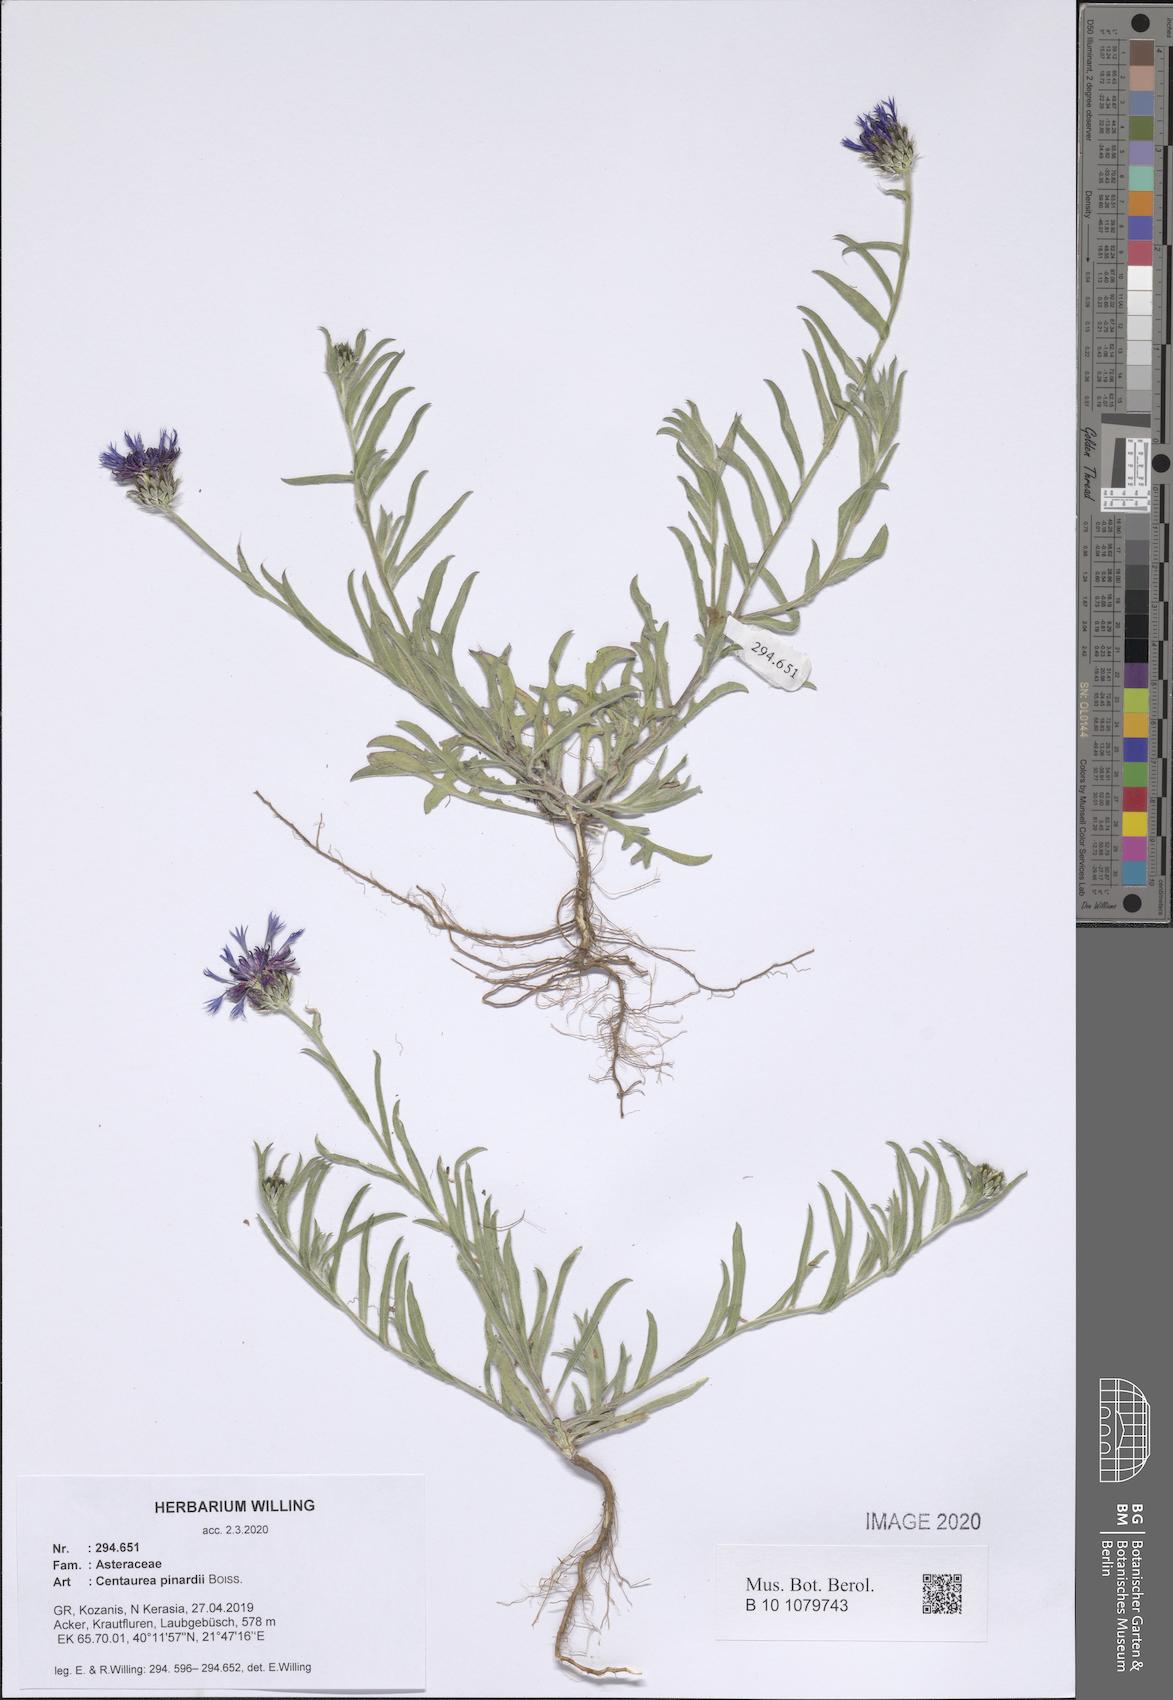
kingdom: Plantae
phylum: Tracheophyta
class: Magnoliopsida
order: Asterales
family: Asteraceae
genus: Centaurea
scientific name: Centaurea pinardii
